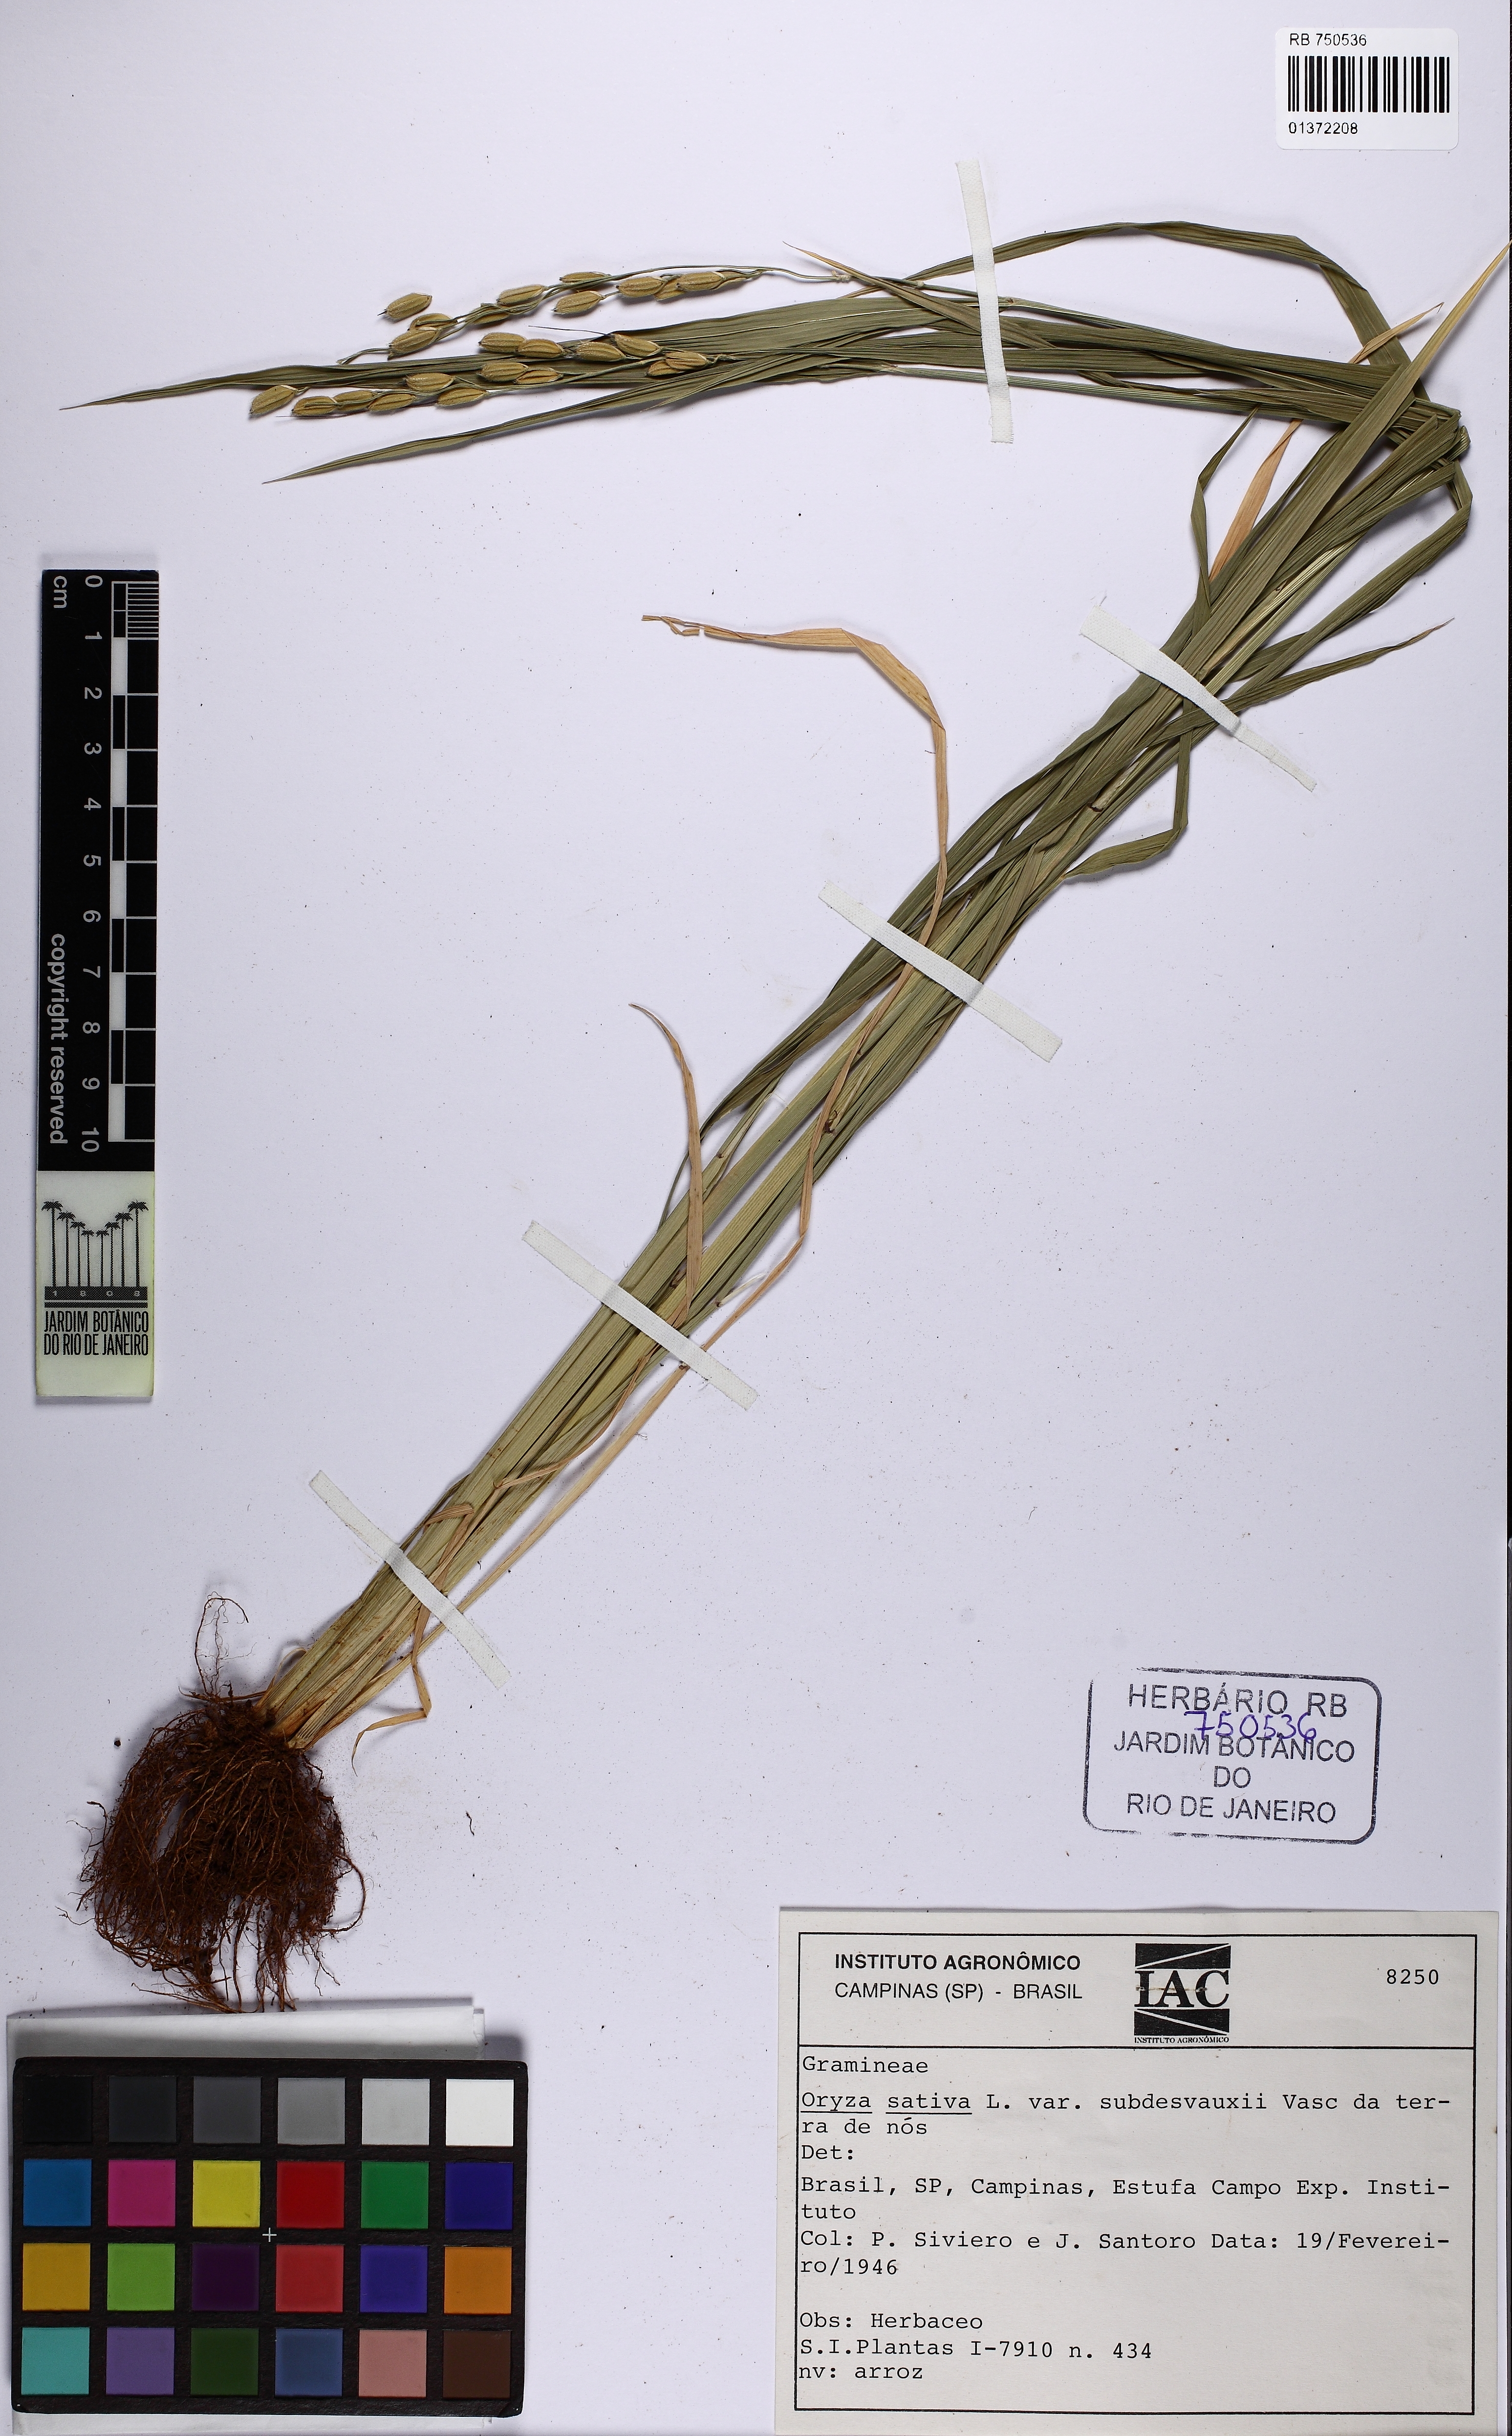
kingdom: Plantae
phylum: Tracheophyta
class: Liliopsida
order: Poales
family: Poaceae
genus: Oryza
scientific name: Oryza sativa
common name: Rice
